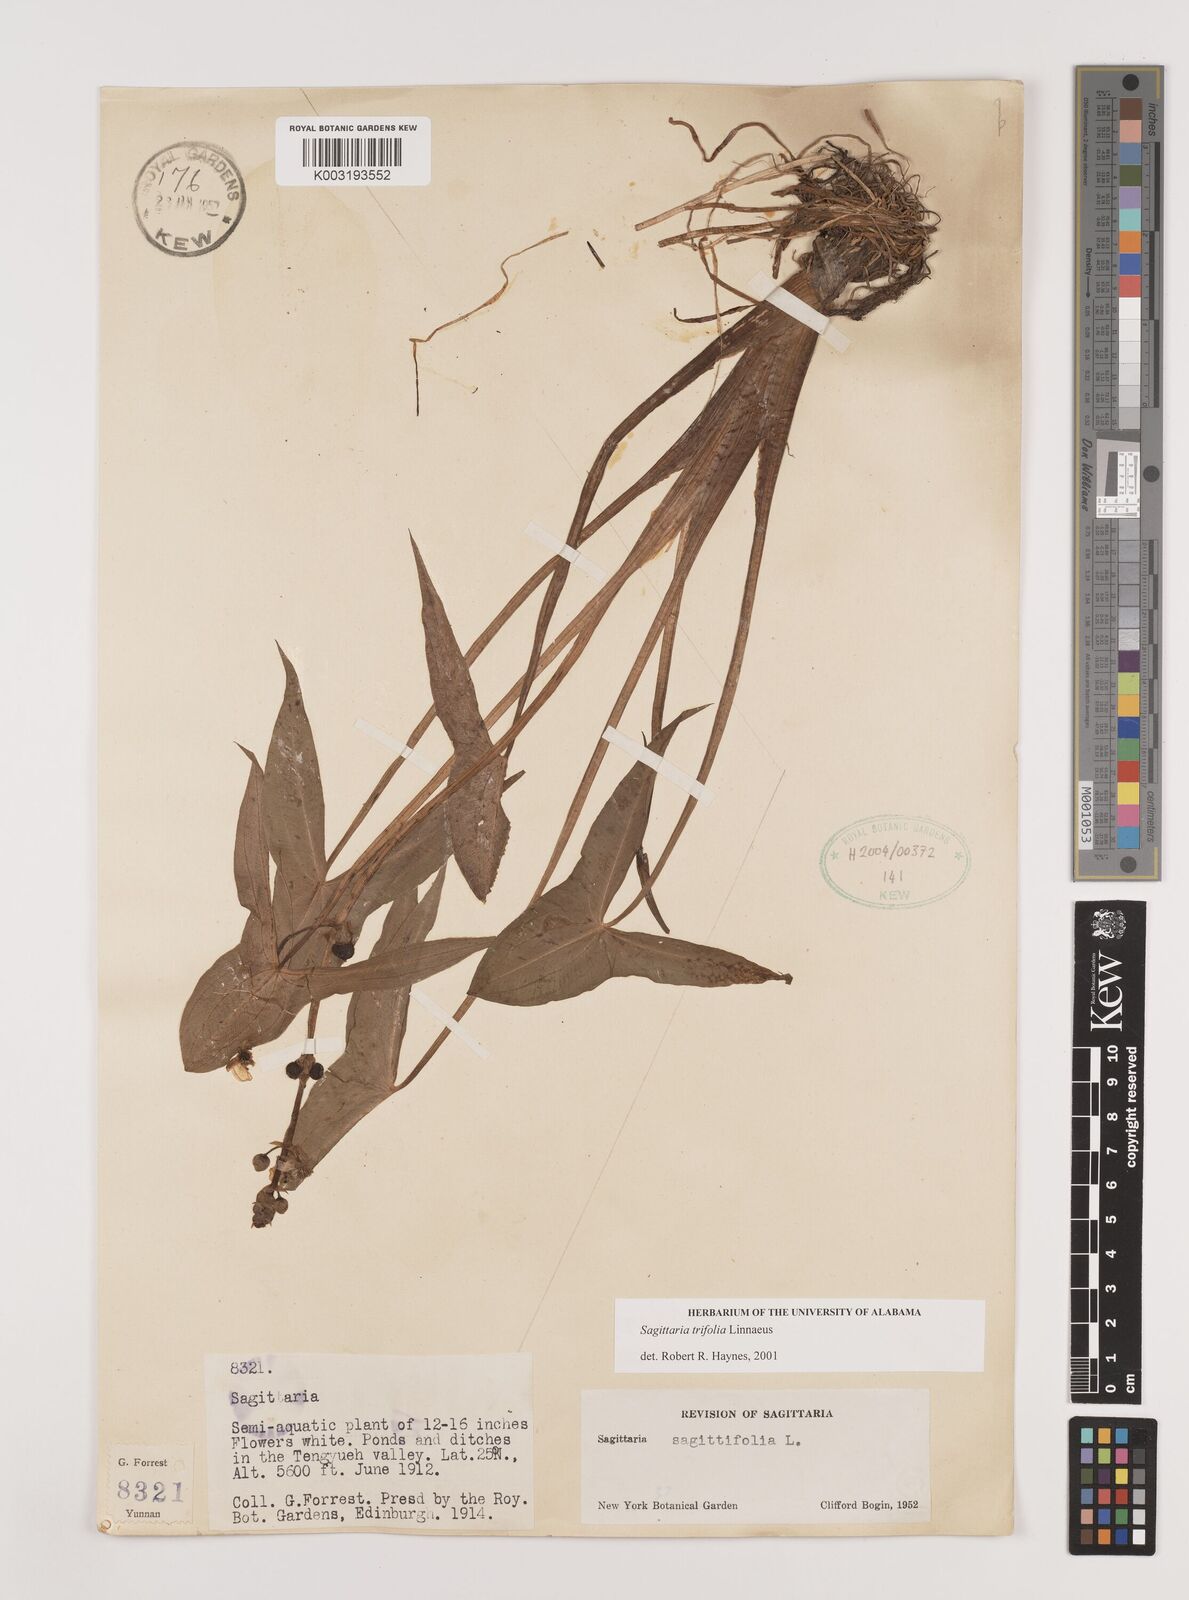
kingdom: Plantae
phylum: Tracheophyta
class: Liliopsida
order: Alismatales
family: Alismataceae
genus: Sagittaria
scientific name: Sagittaria trifolia
